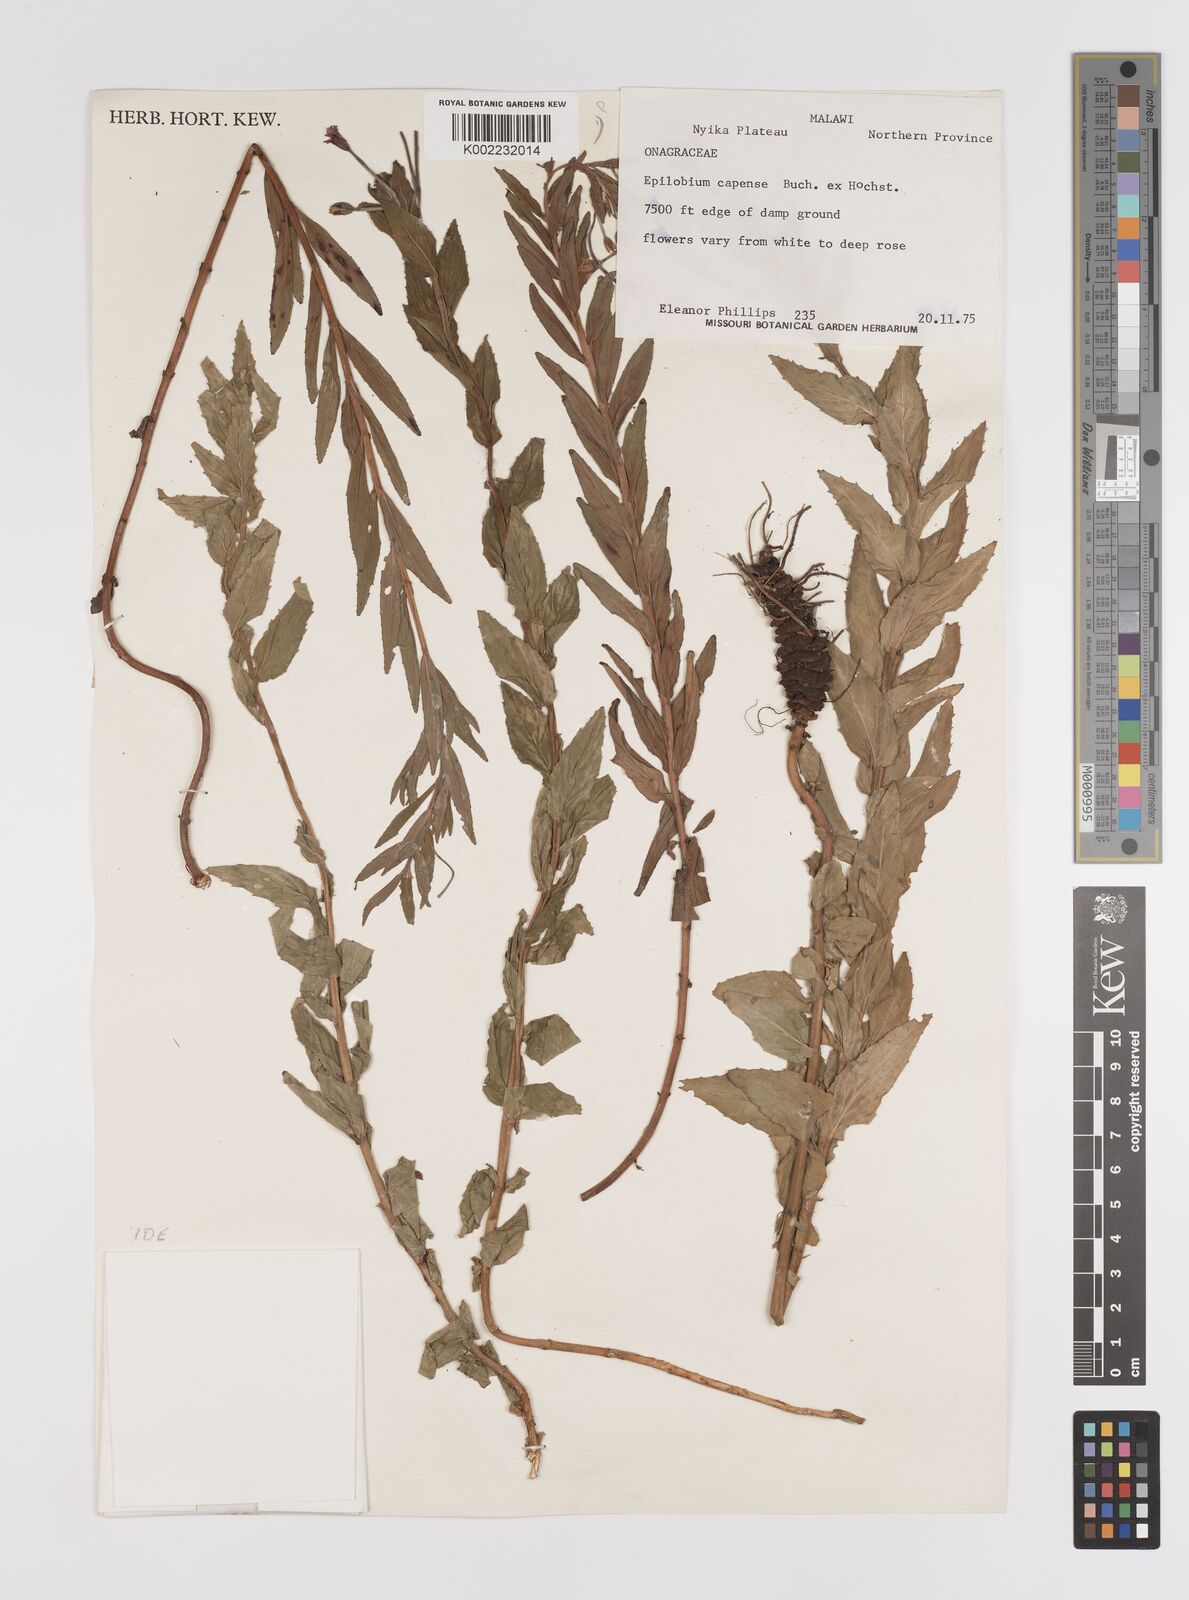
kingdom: Plantae
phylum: Tracheophyta
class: Magnoliopsida
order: Myrtales
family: Onagraceae
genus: Epilobium
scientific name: Epilobium capense
